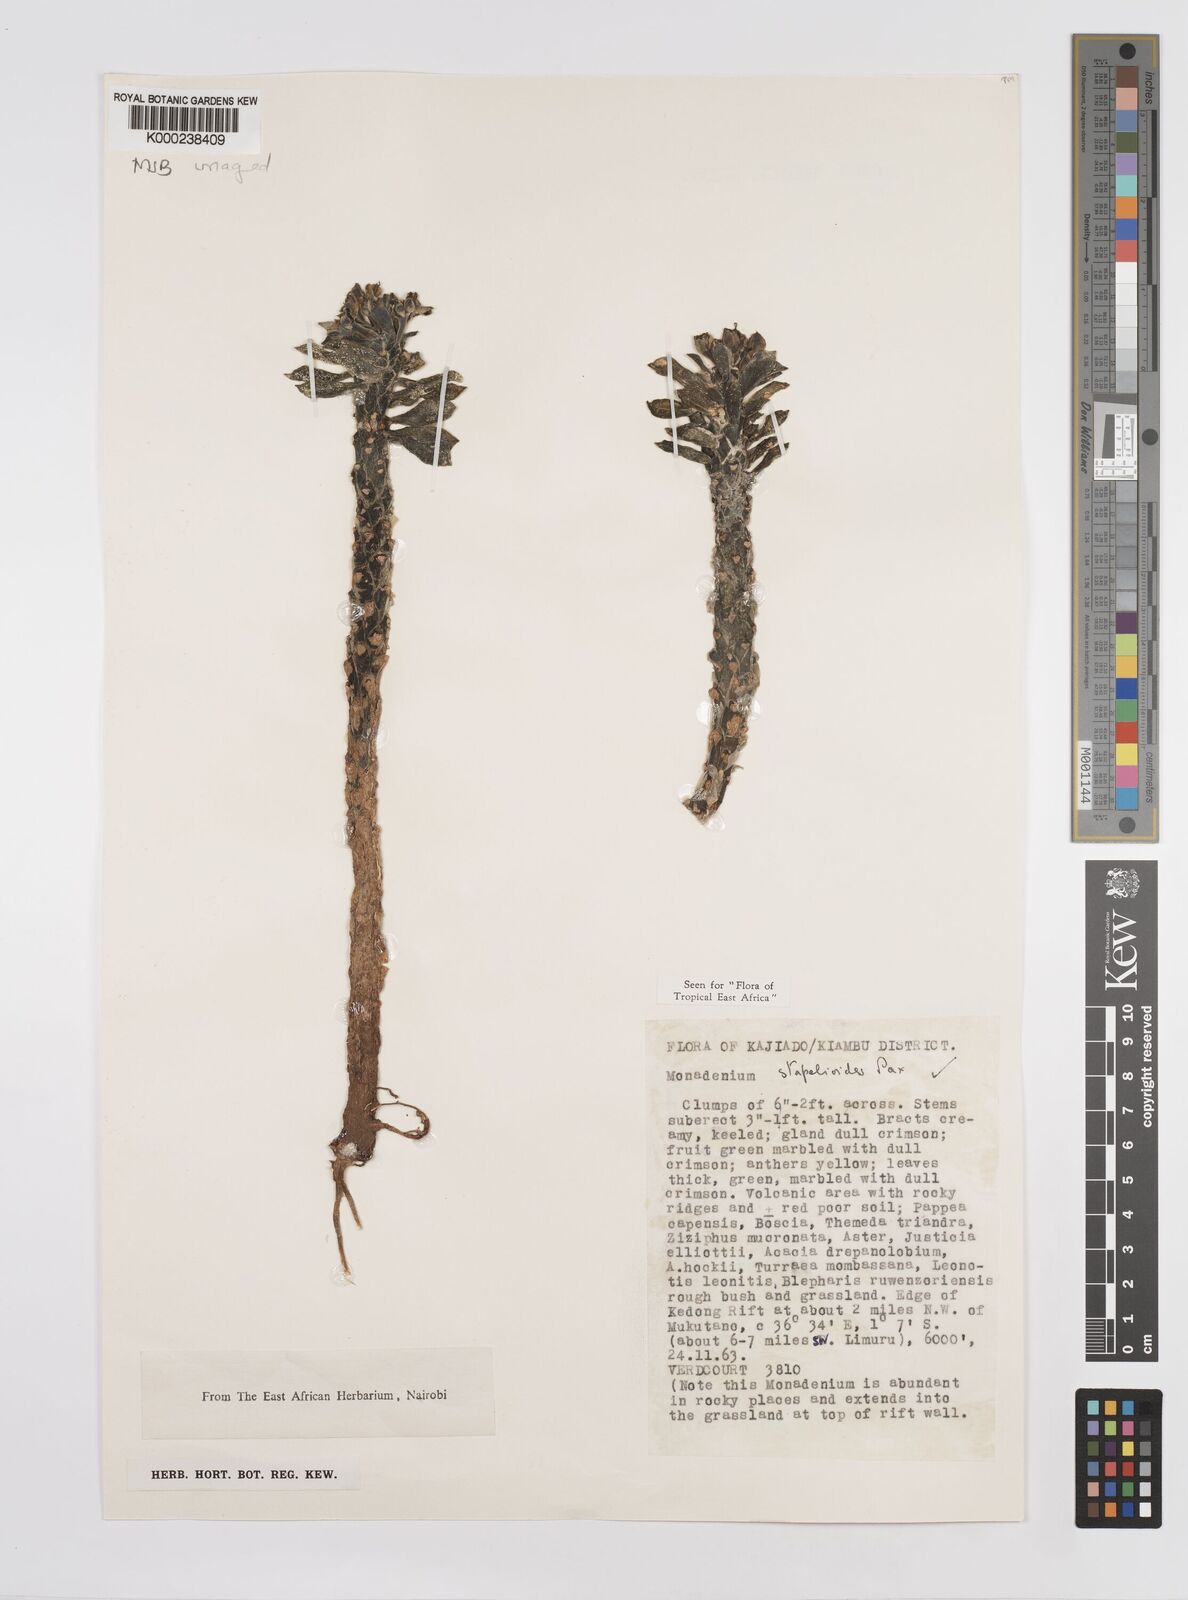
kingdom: Plantae
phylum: Tracheophyta
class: Magnoliopsida
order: Malpighiales
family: Euphorbiaceae
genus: Euphorbia
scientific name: Euphorbia succulenta
